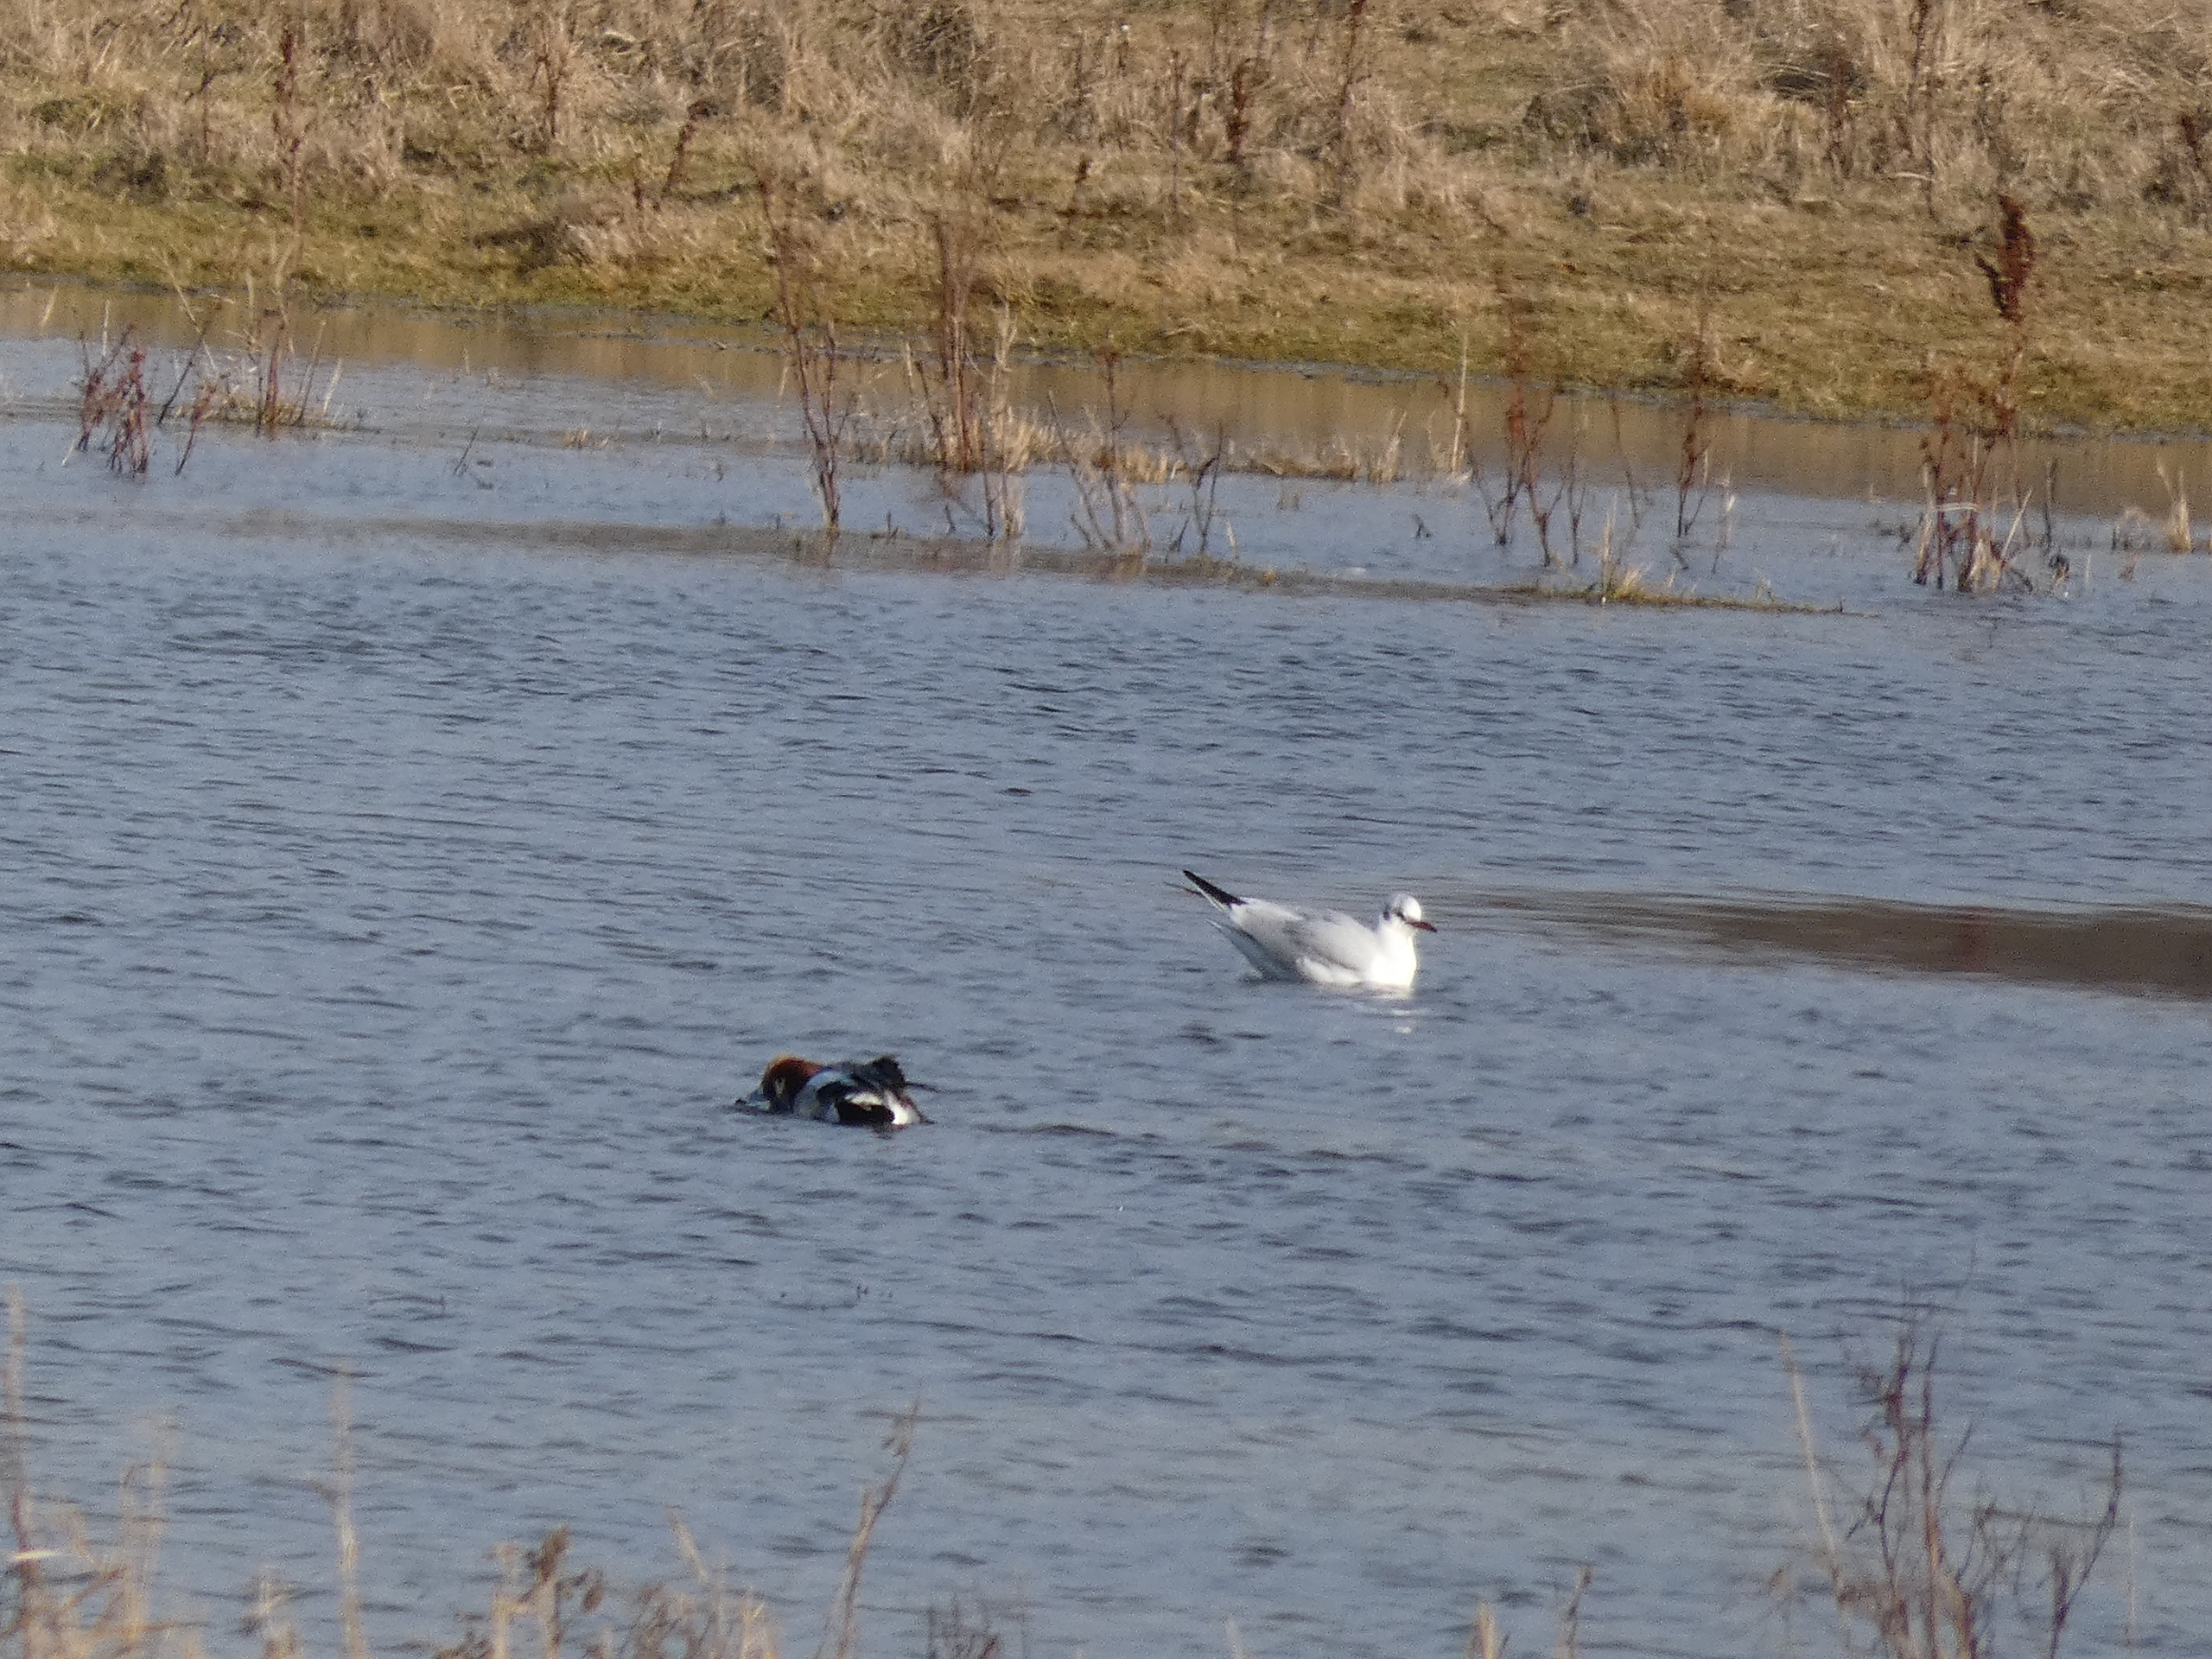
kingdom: Animalia
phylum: Chordata
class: Aves
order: Charadriiformes
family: Laridae
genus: Chroicocephalus
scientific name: Chroicocephalus ridibundus
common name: Hættemåge
